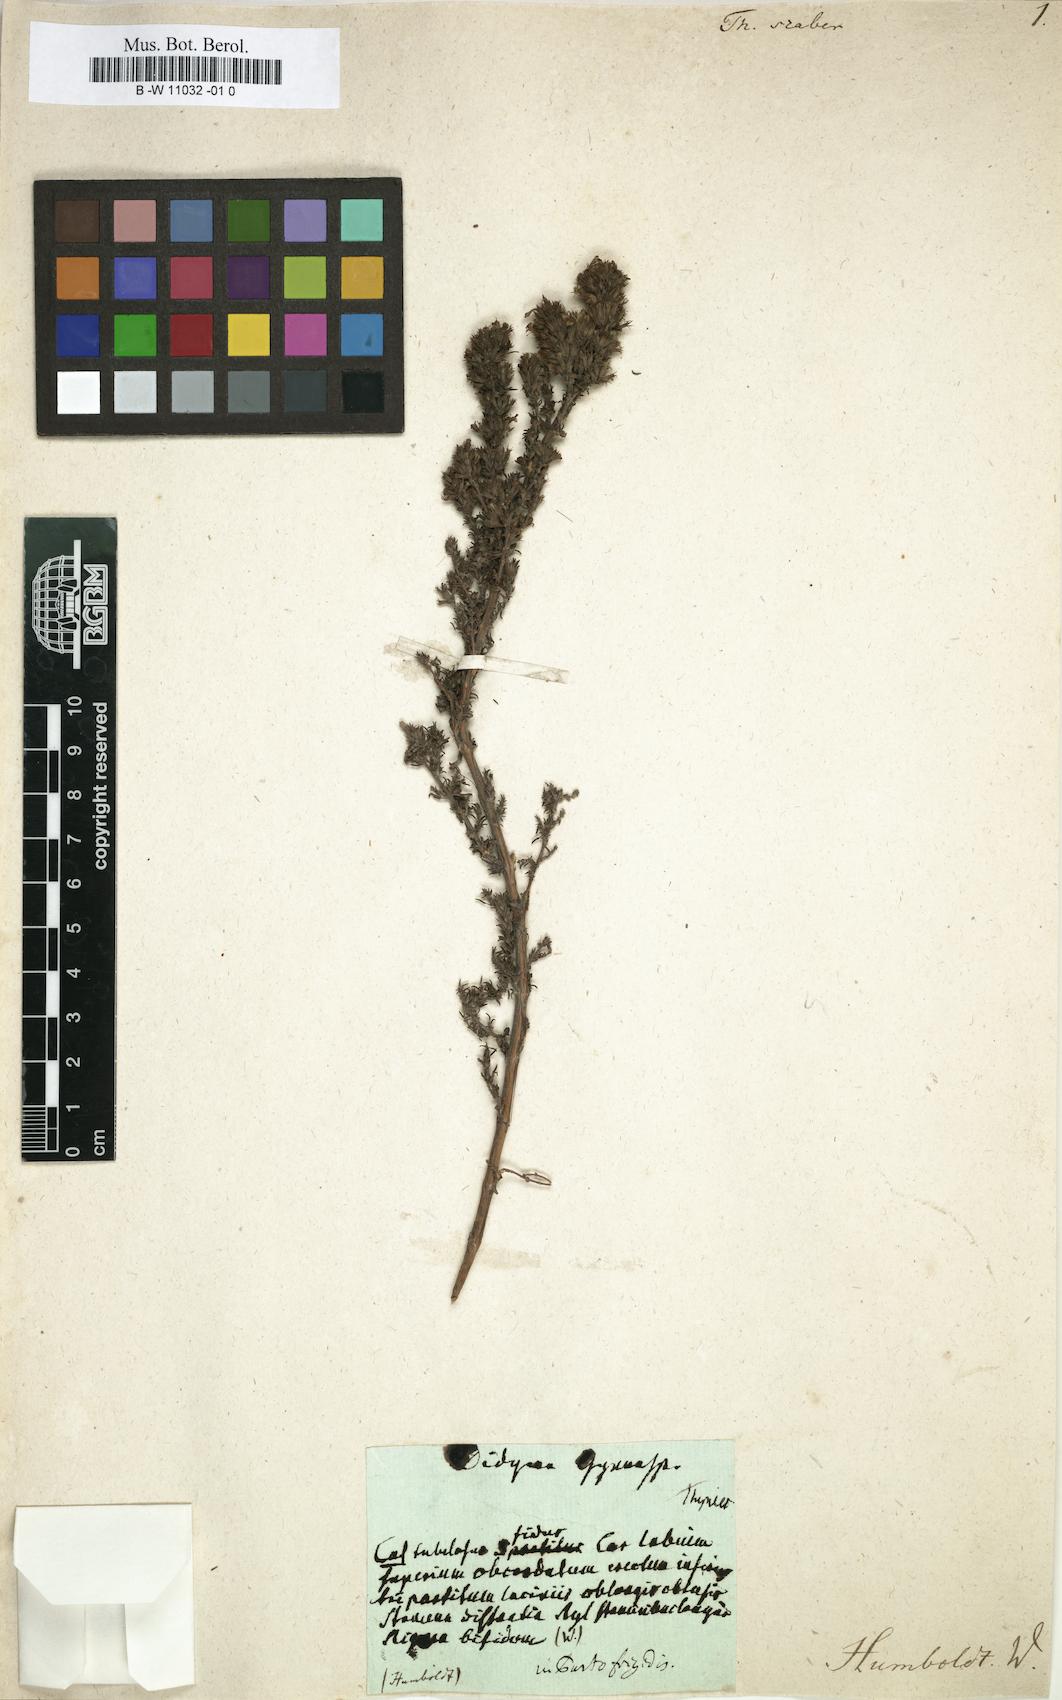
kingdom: Plantae
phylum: Tracheophyta
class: Magnoliopsida
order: Lamiales
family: Lamiaceae
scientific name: Lamiaceae
